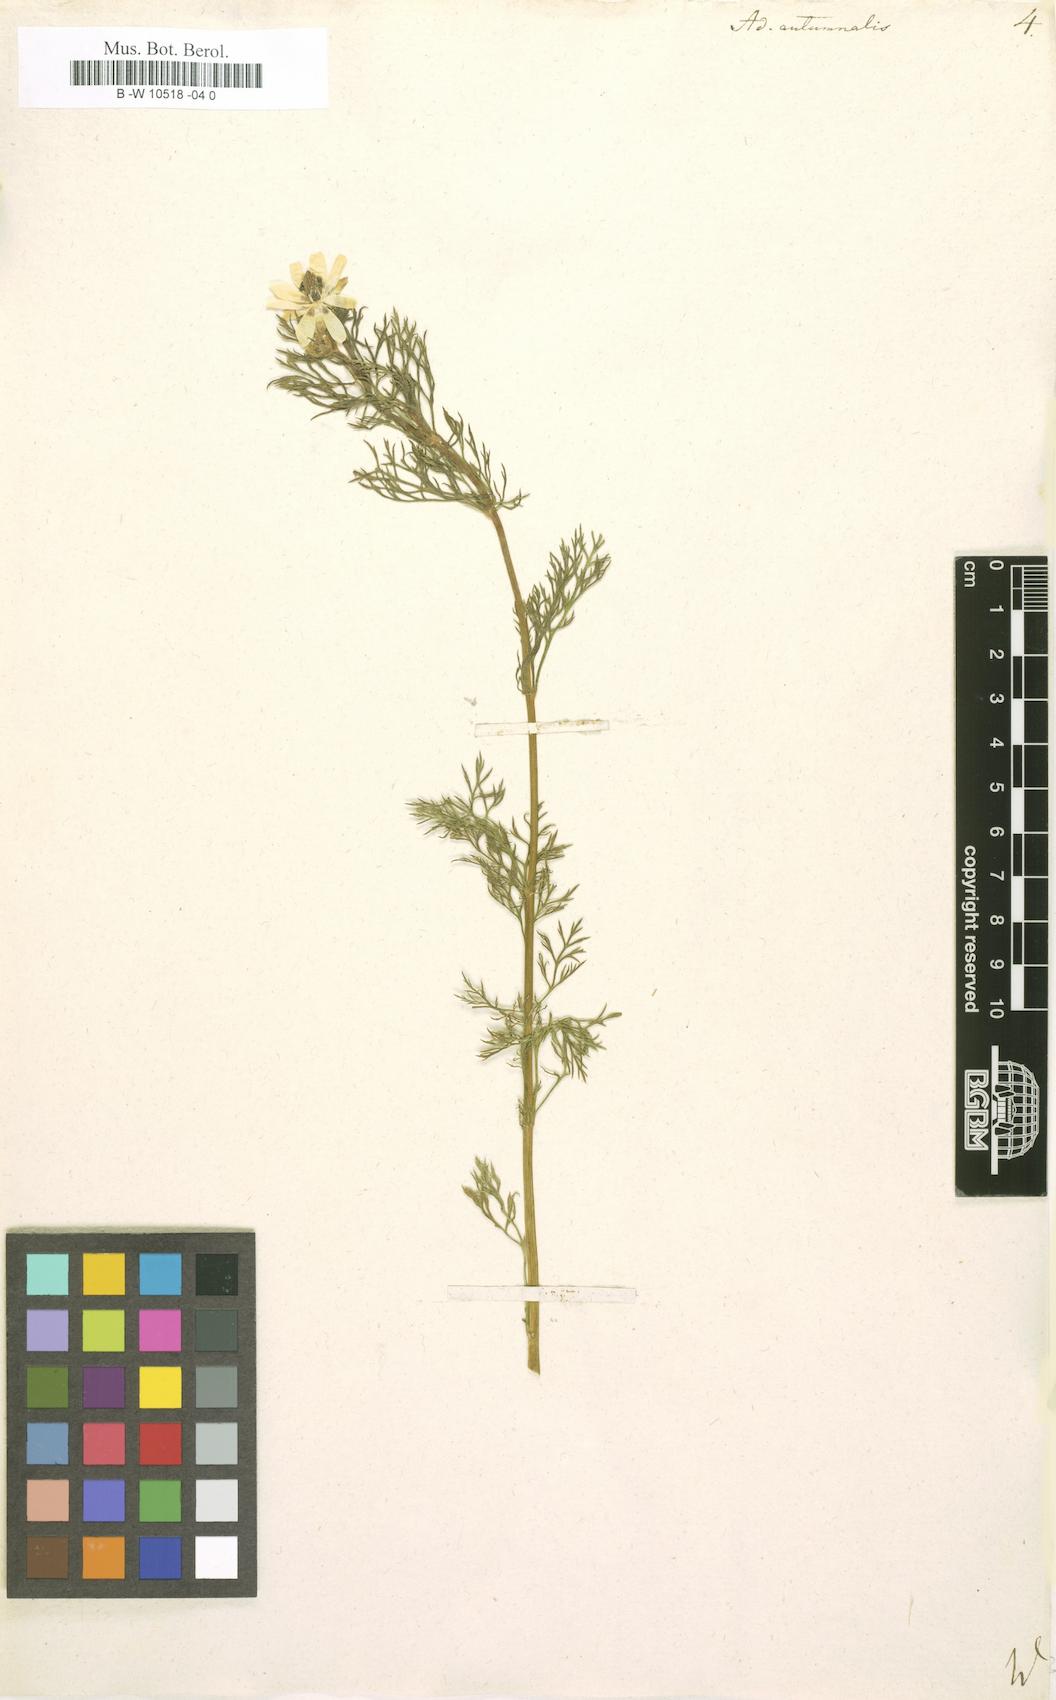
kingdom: Plantae
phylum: Tracheophyta
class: Magnoliopsida
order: Ranunculales
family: Ranunculaceae
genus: Adonis
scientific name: Adonis annua
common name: Pheasant's-eye
